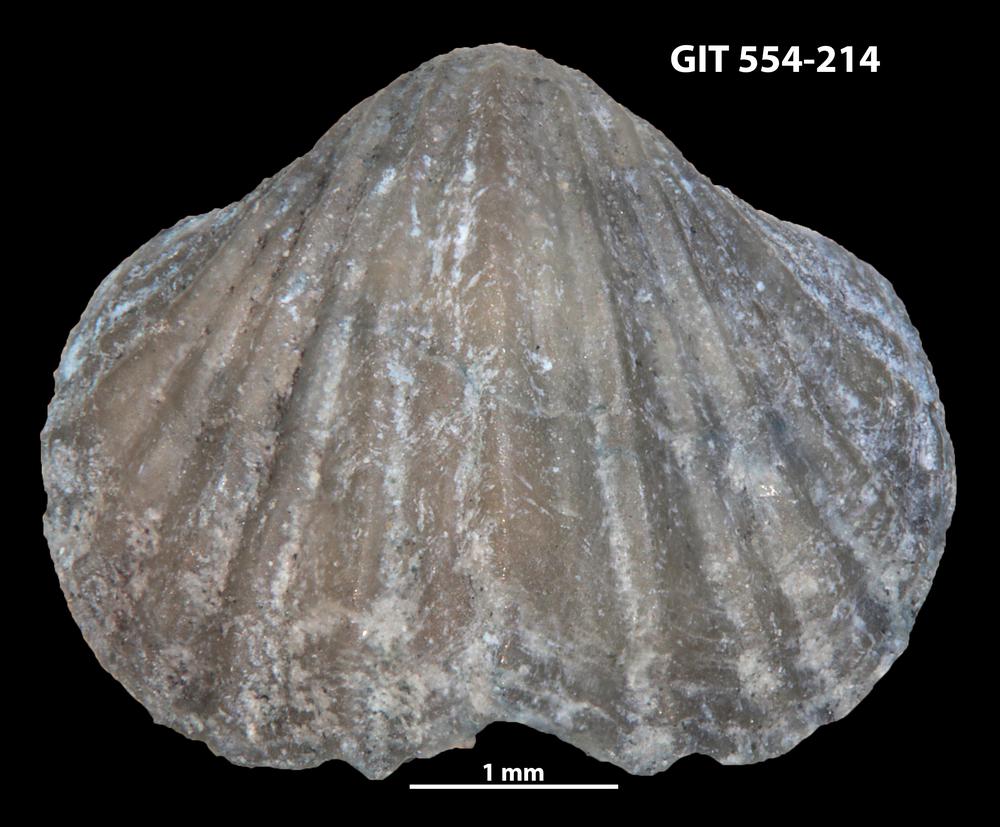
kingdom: Animalia
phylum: Brachiopoda
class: Rhynchonellata
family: Dalmanellidae
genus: Ravozetina
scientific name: Ravozetina
